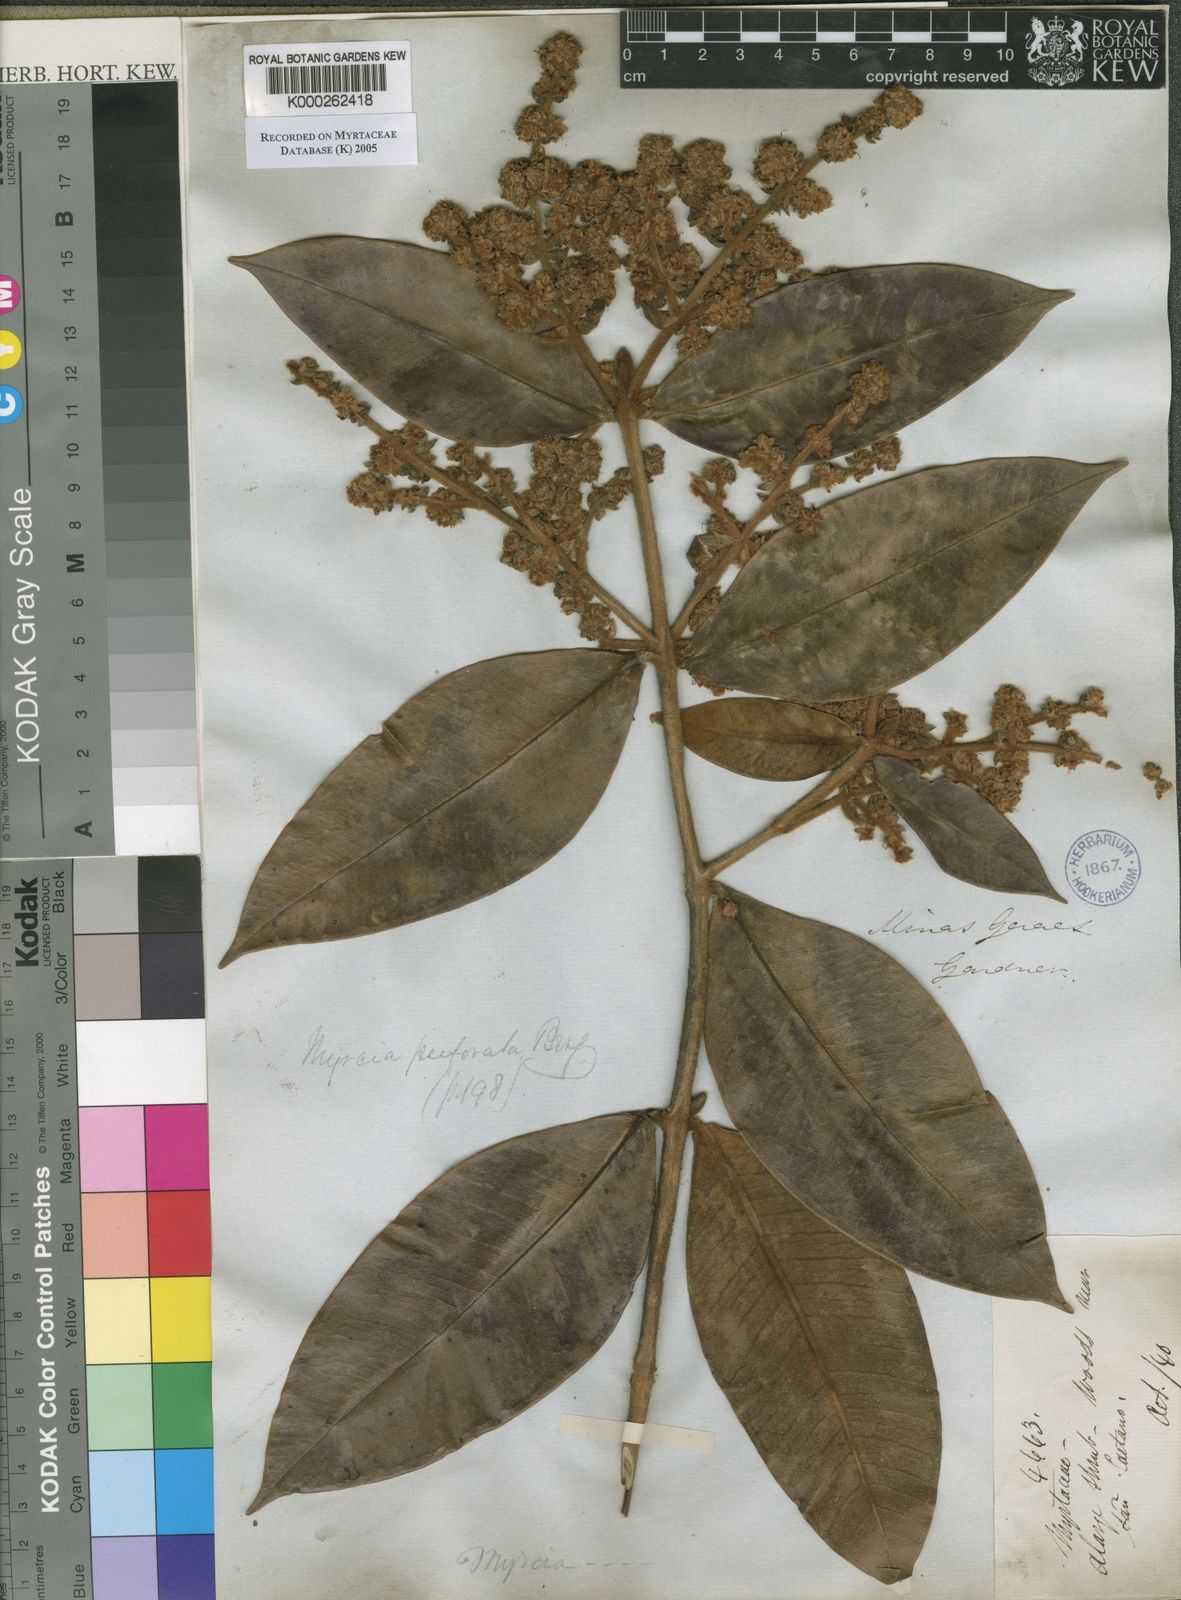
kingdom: Plantae
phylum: Tracheophyta
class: Magnoliopsida
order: Myrtales
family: Myrtaceae
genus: Myrcia
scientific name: Myrcia perforata
